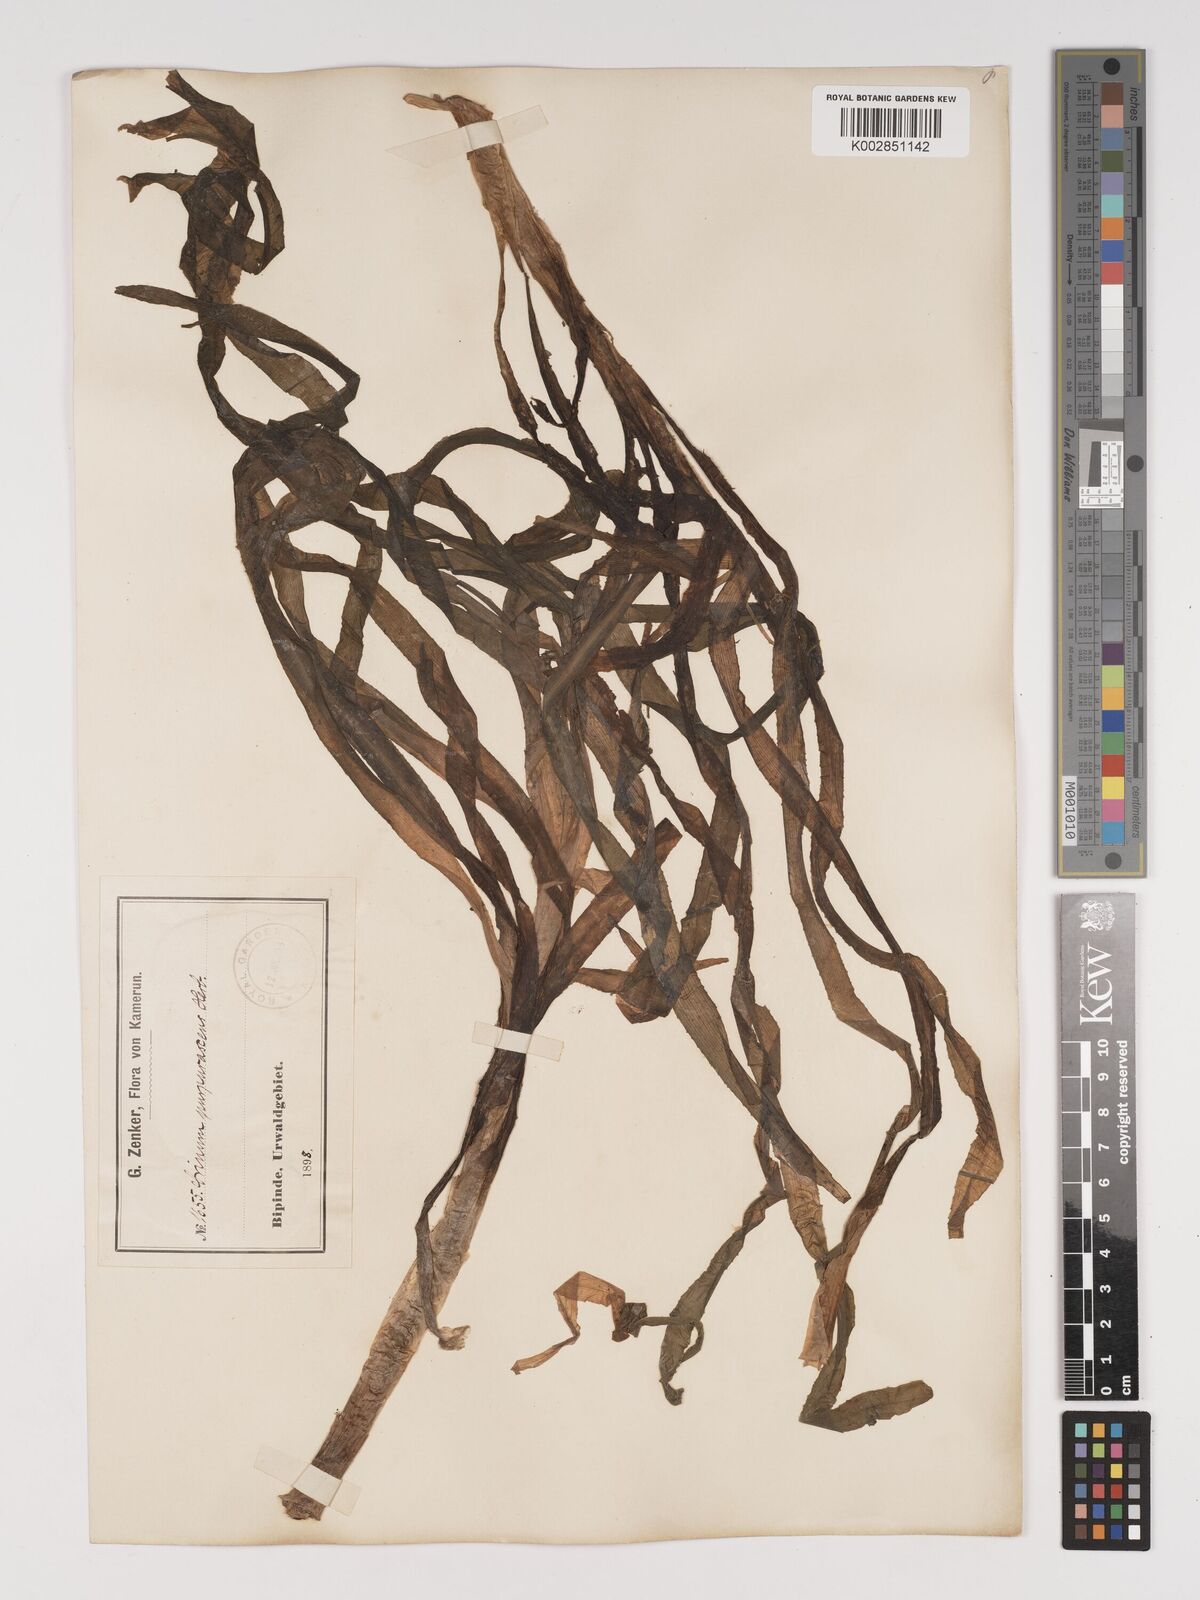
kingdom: Plantae
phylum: Tracheophyta
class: Liliopsida
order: Asparagales
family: Amaryllidaceae
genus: Crinum
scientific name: Crinum purpurascens
